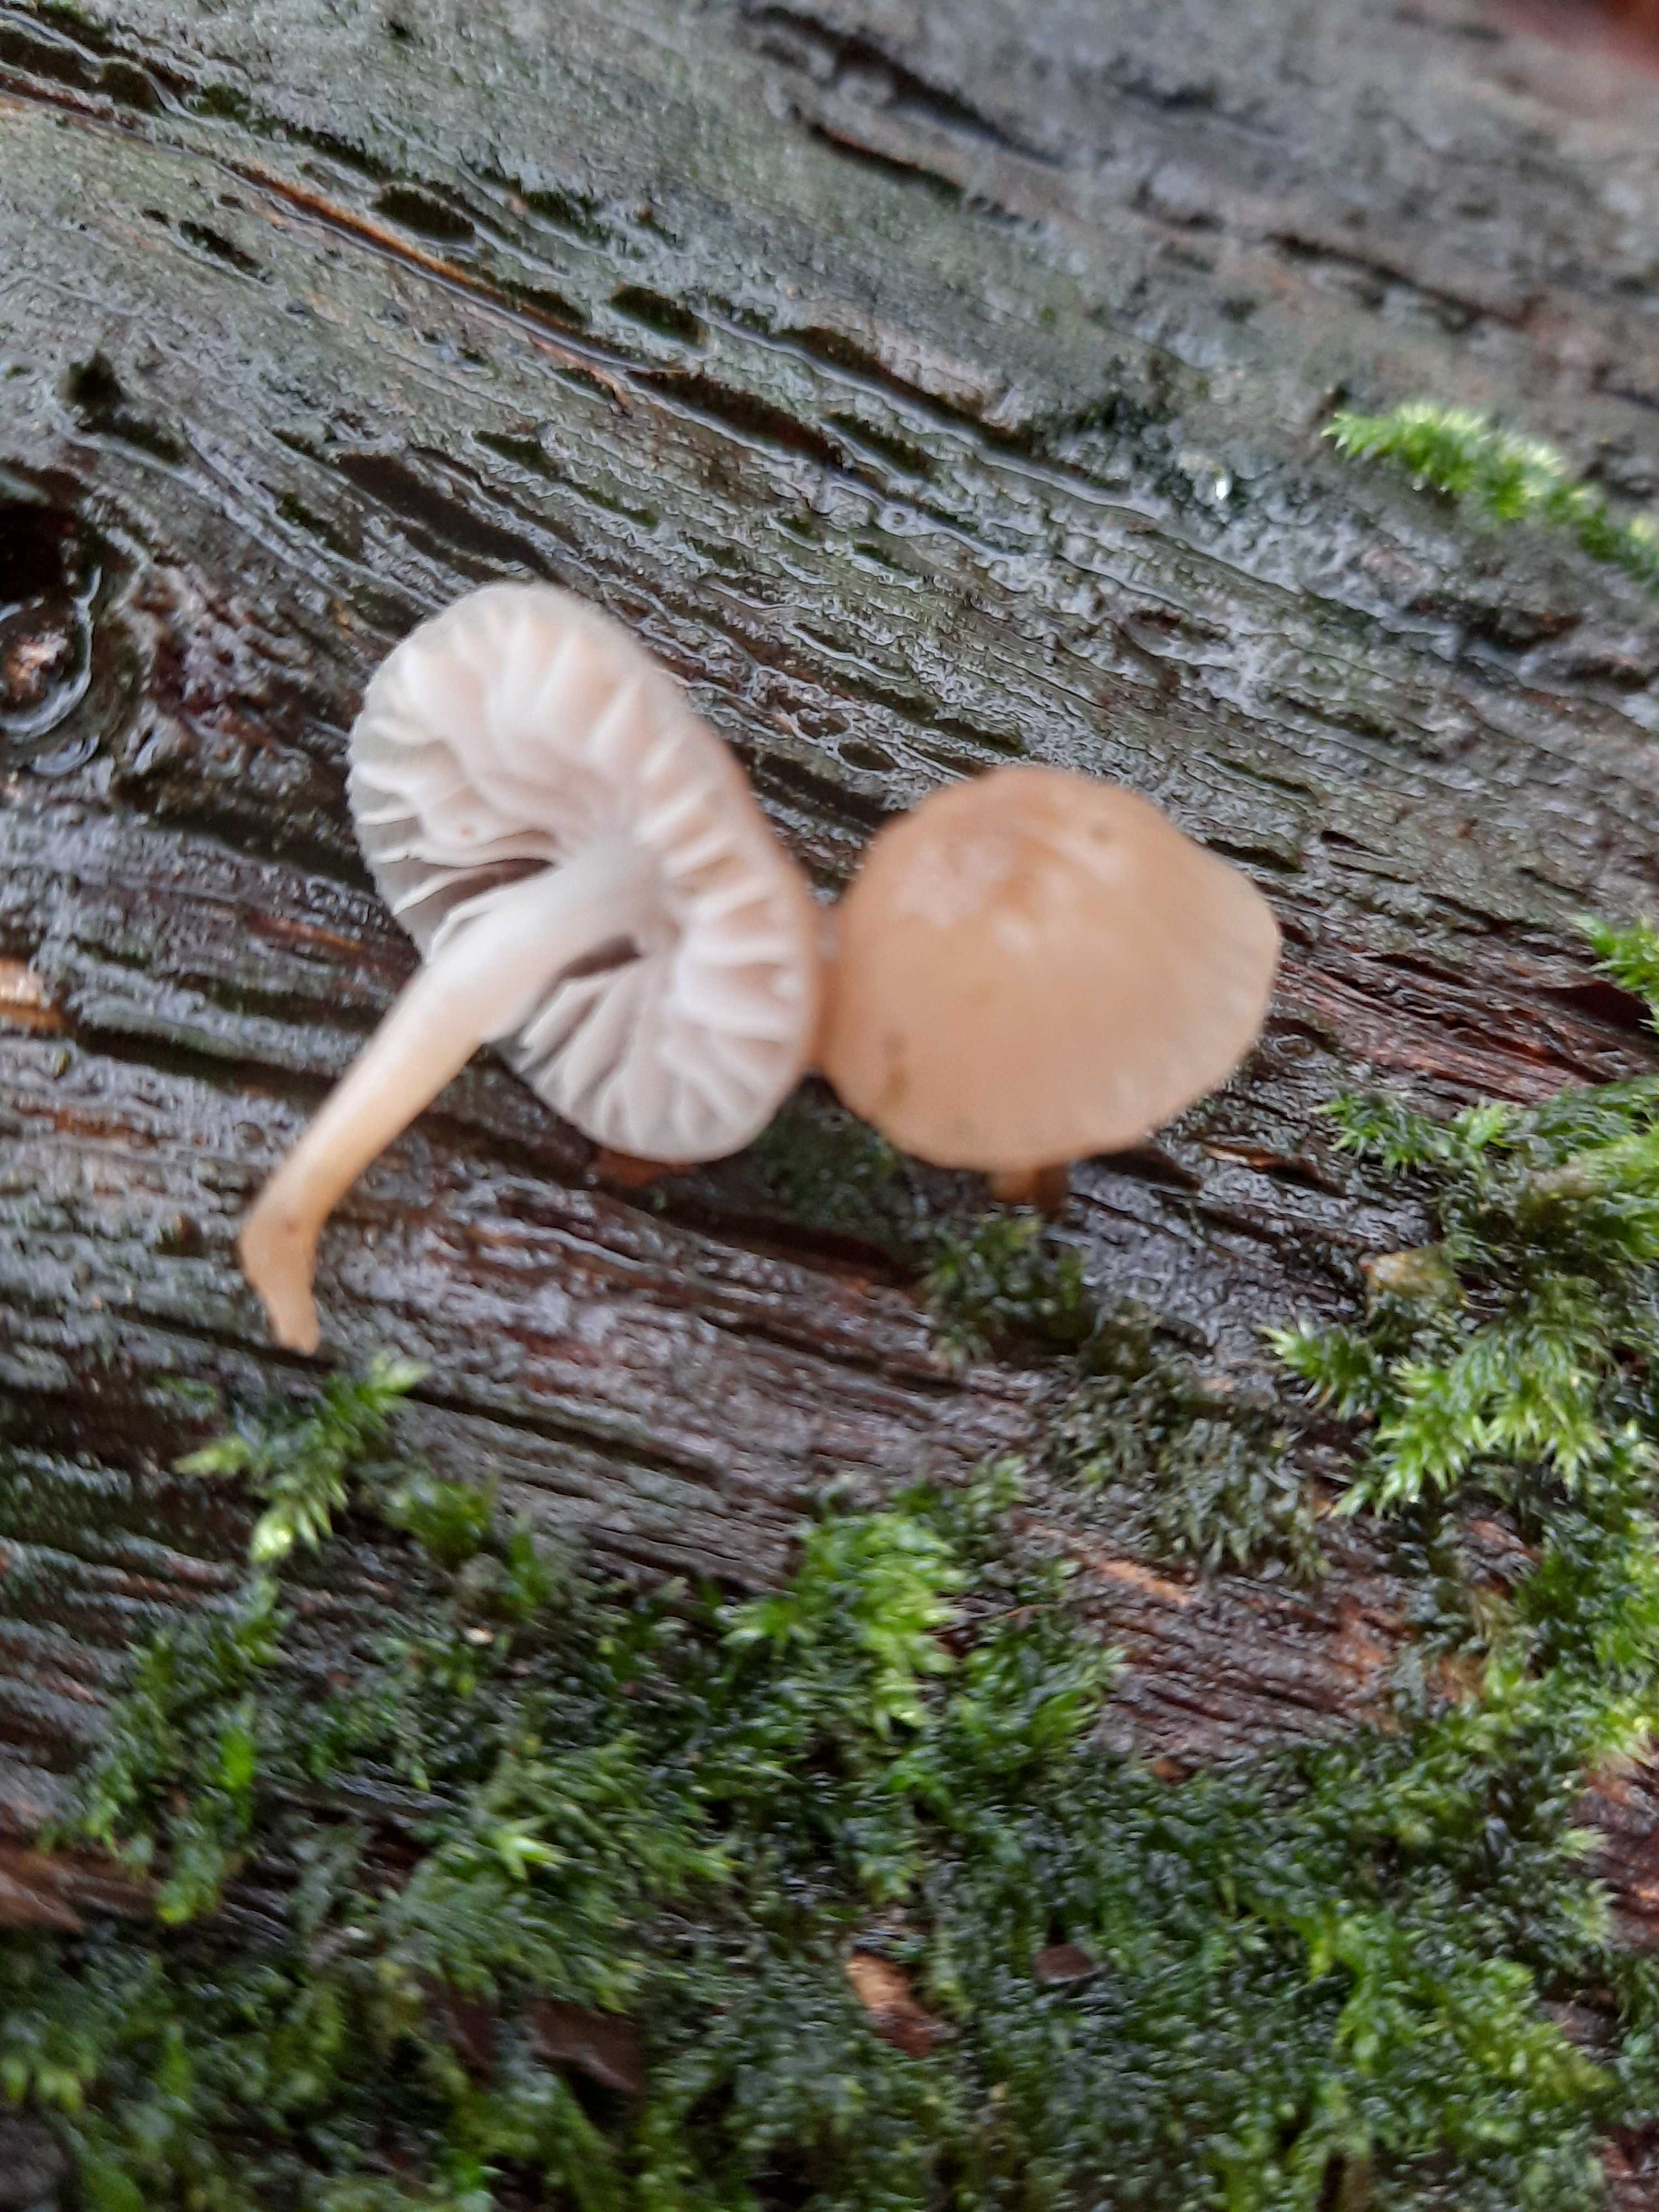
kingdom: Fungi
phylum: Basidiomycota
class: Agaricomycetes
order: Agaricales
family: Mycenaceae
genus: Mycena
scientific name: Mycena galericulata
